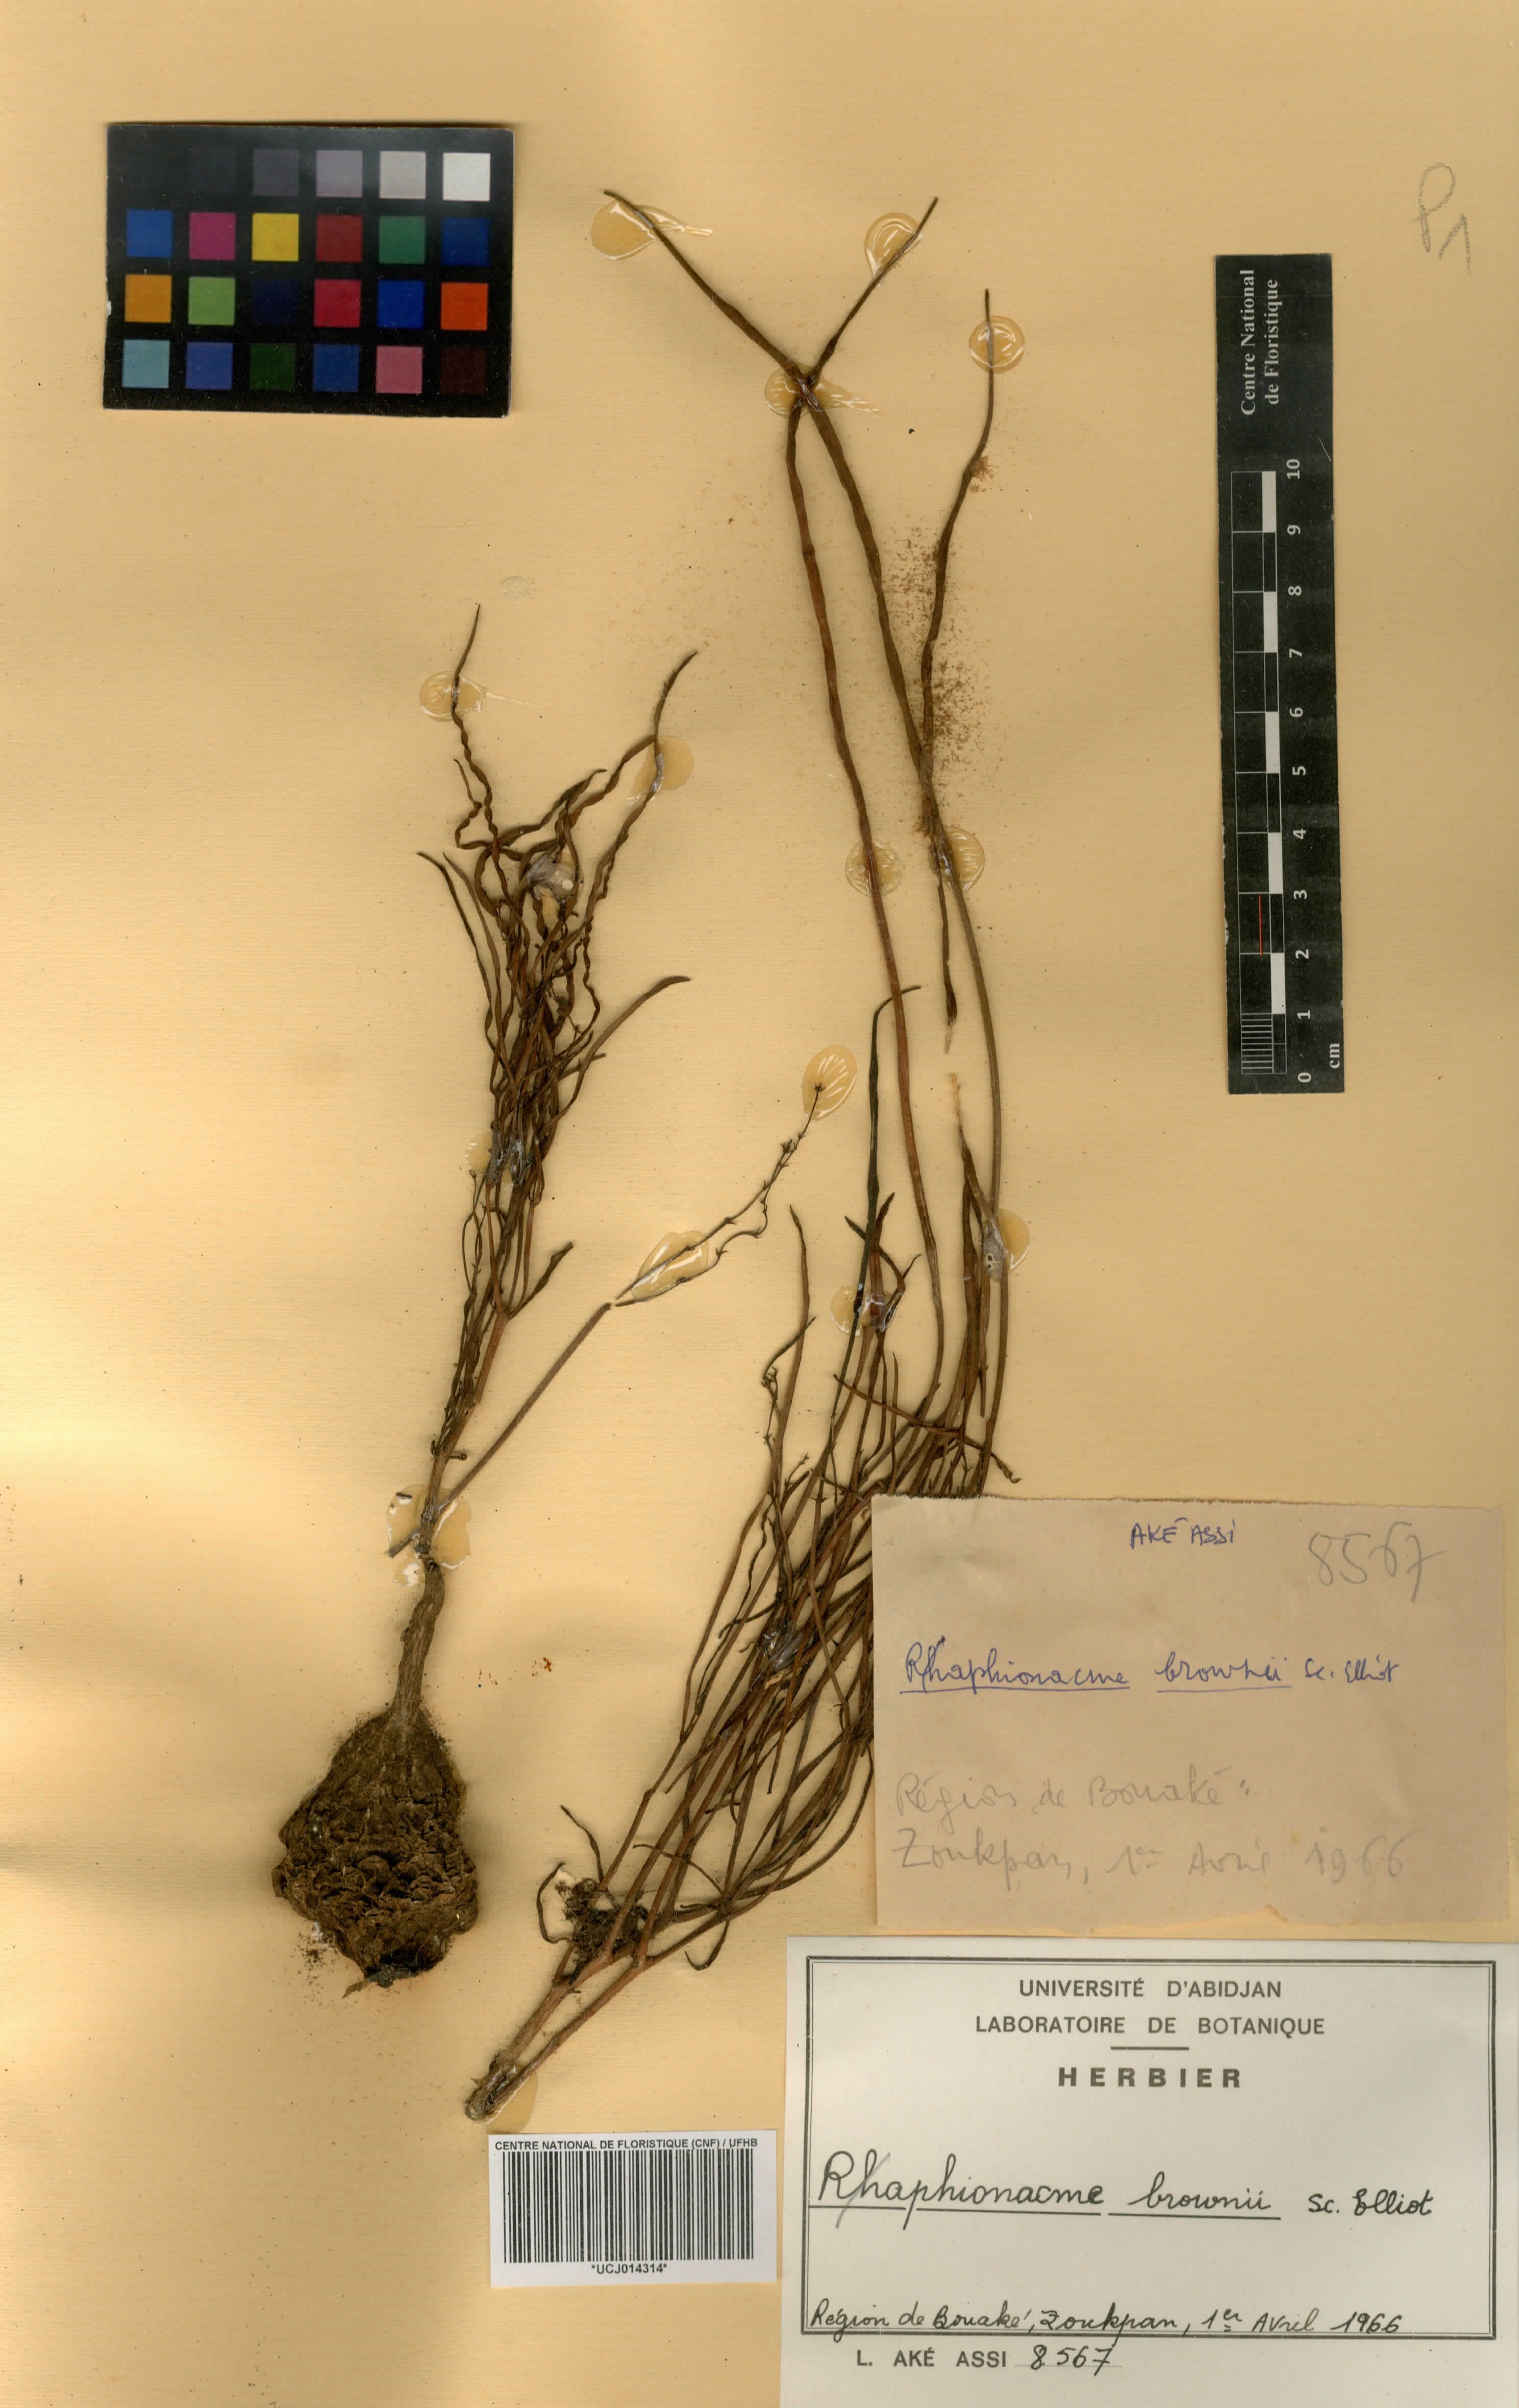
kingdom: Plantae
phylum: Tracheophyta
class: Magnoliopsida
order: Gentianales
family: Apocynaceae
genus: Raphionacme
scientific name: Raphionacme brownii
